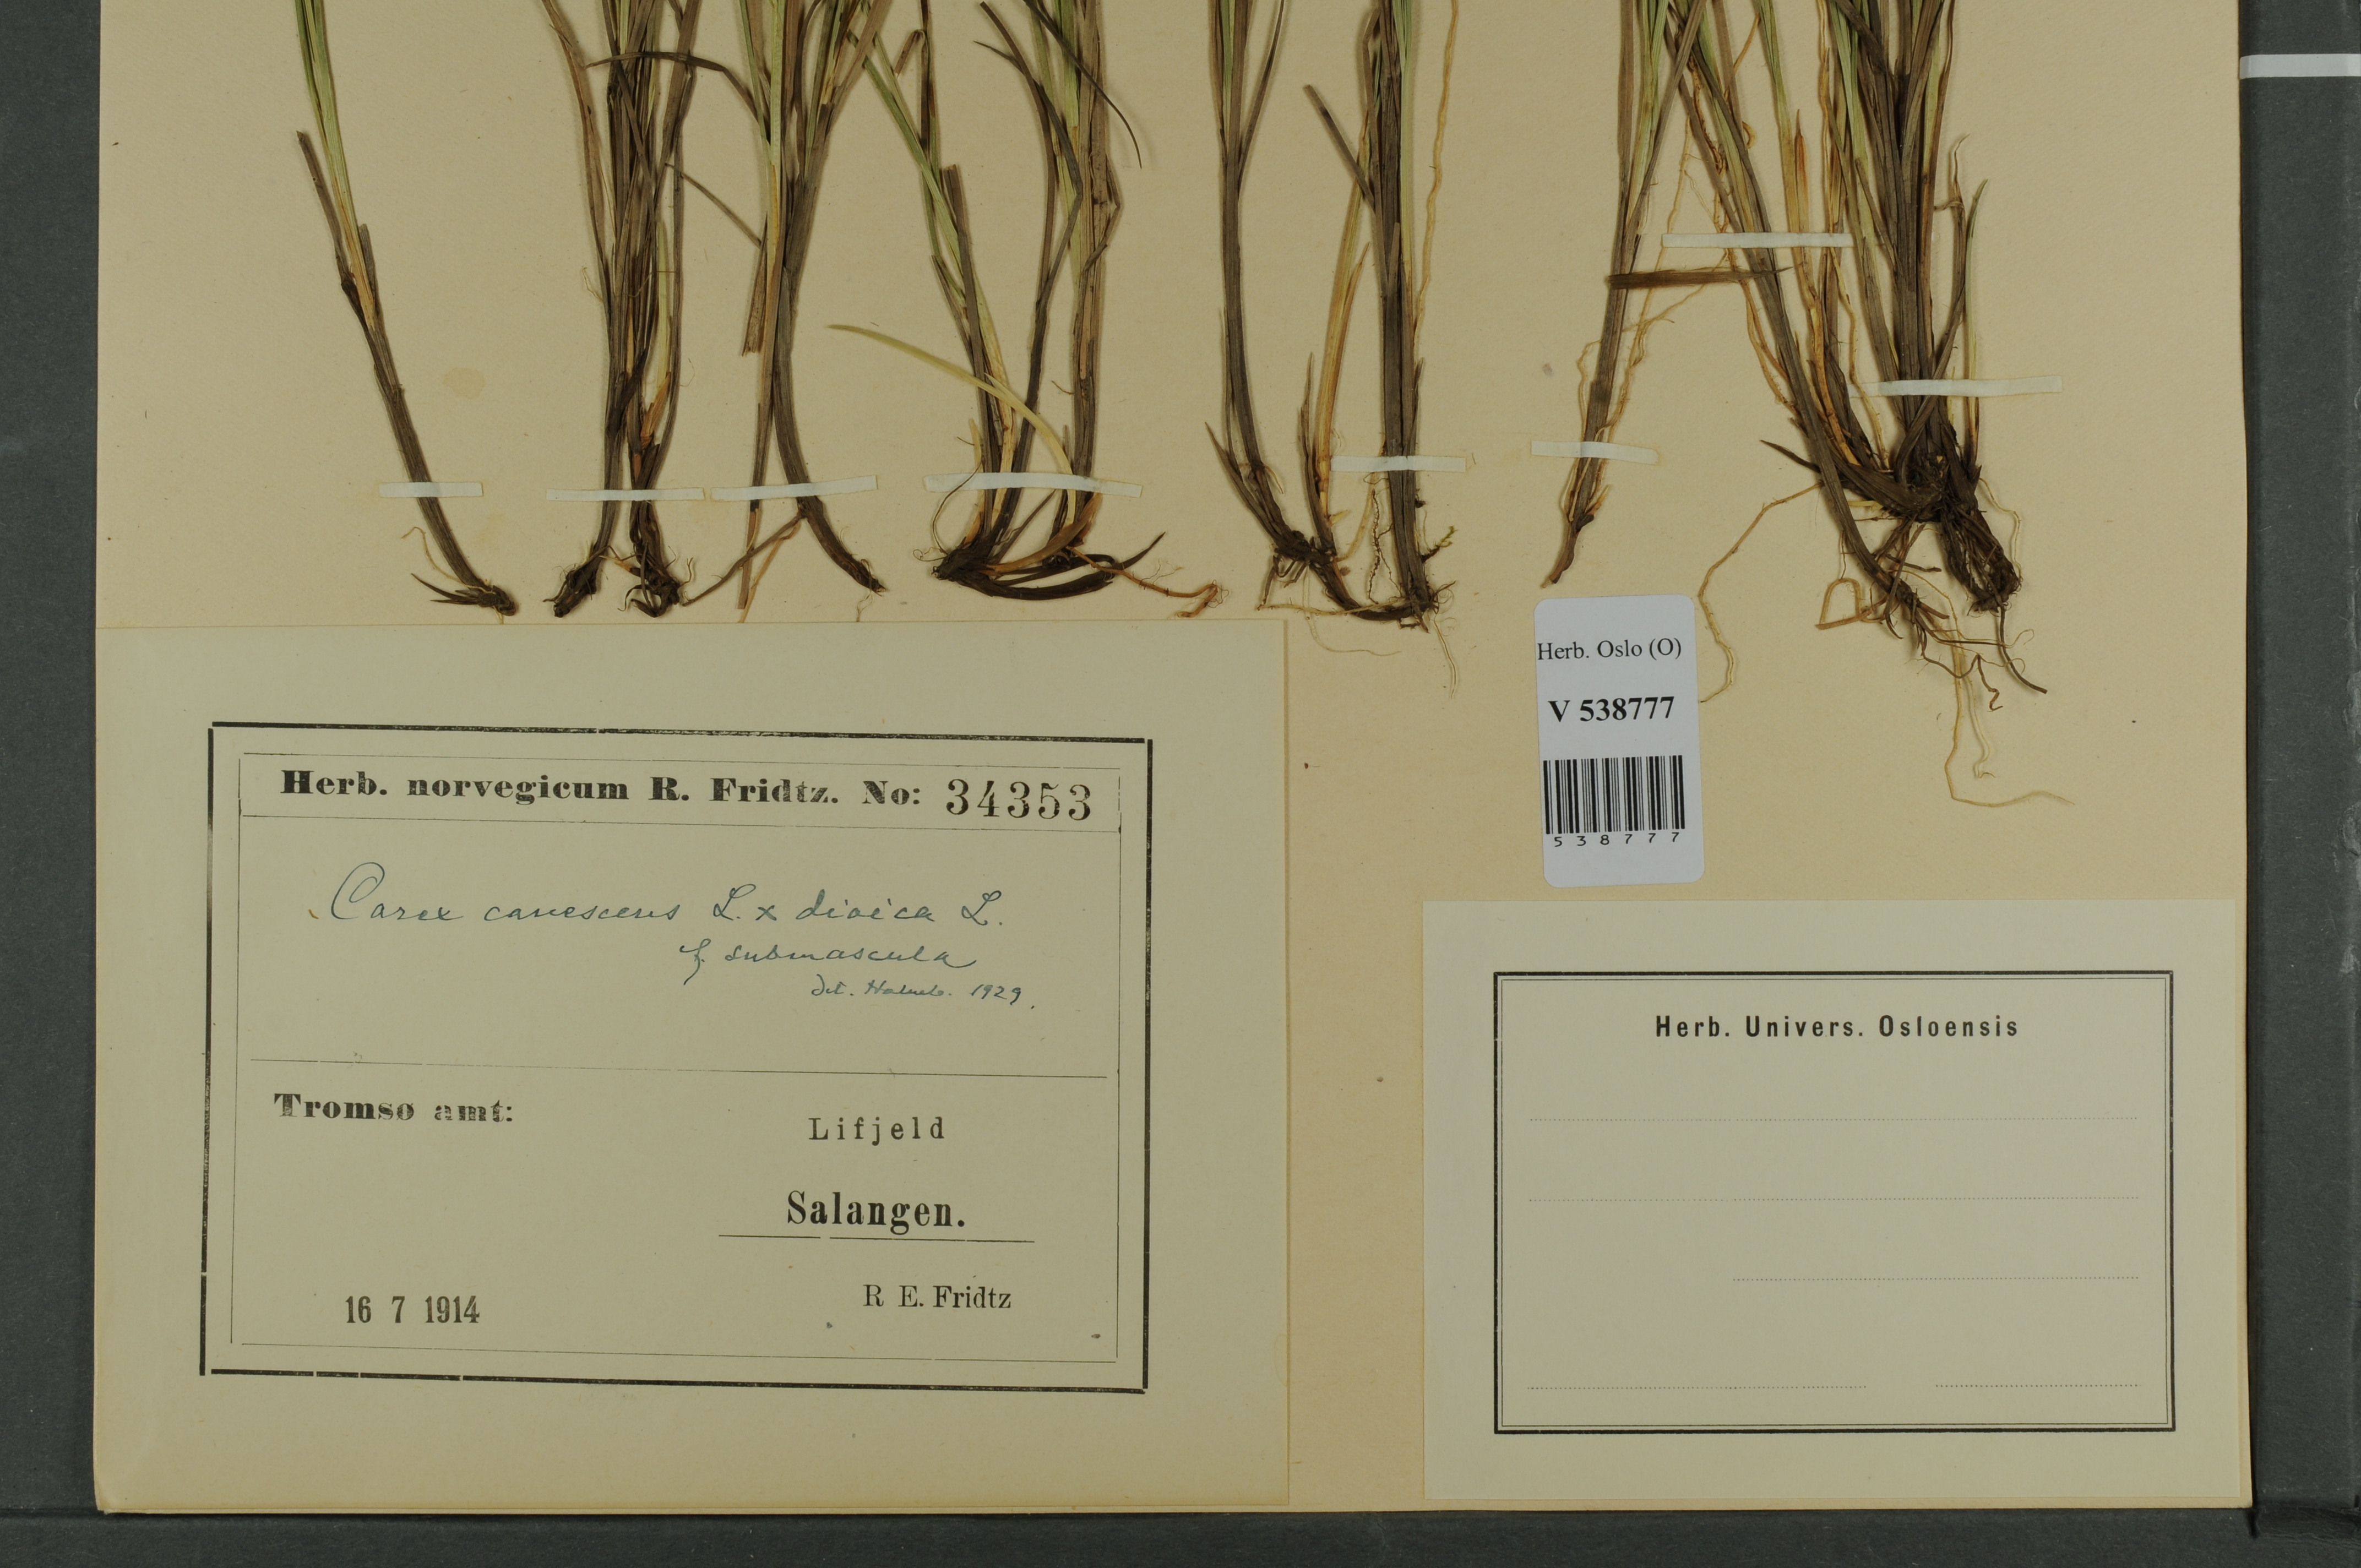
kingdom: Plantae
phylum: Tracheophyta
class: Liliopsida
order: Poales
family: Cyperaceae
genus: Carex
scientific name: Carex
